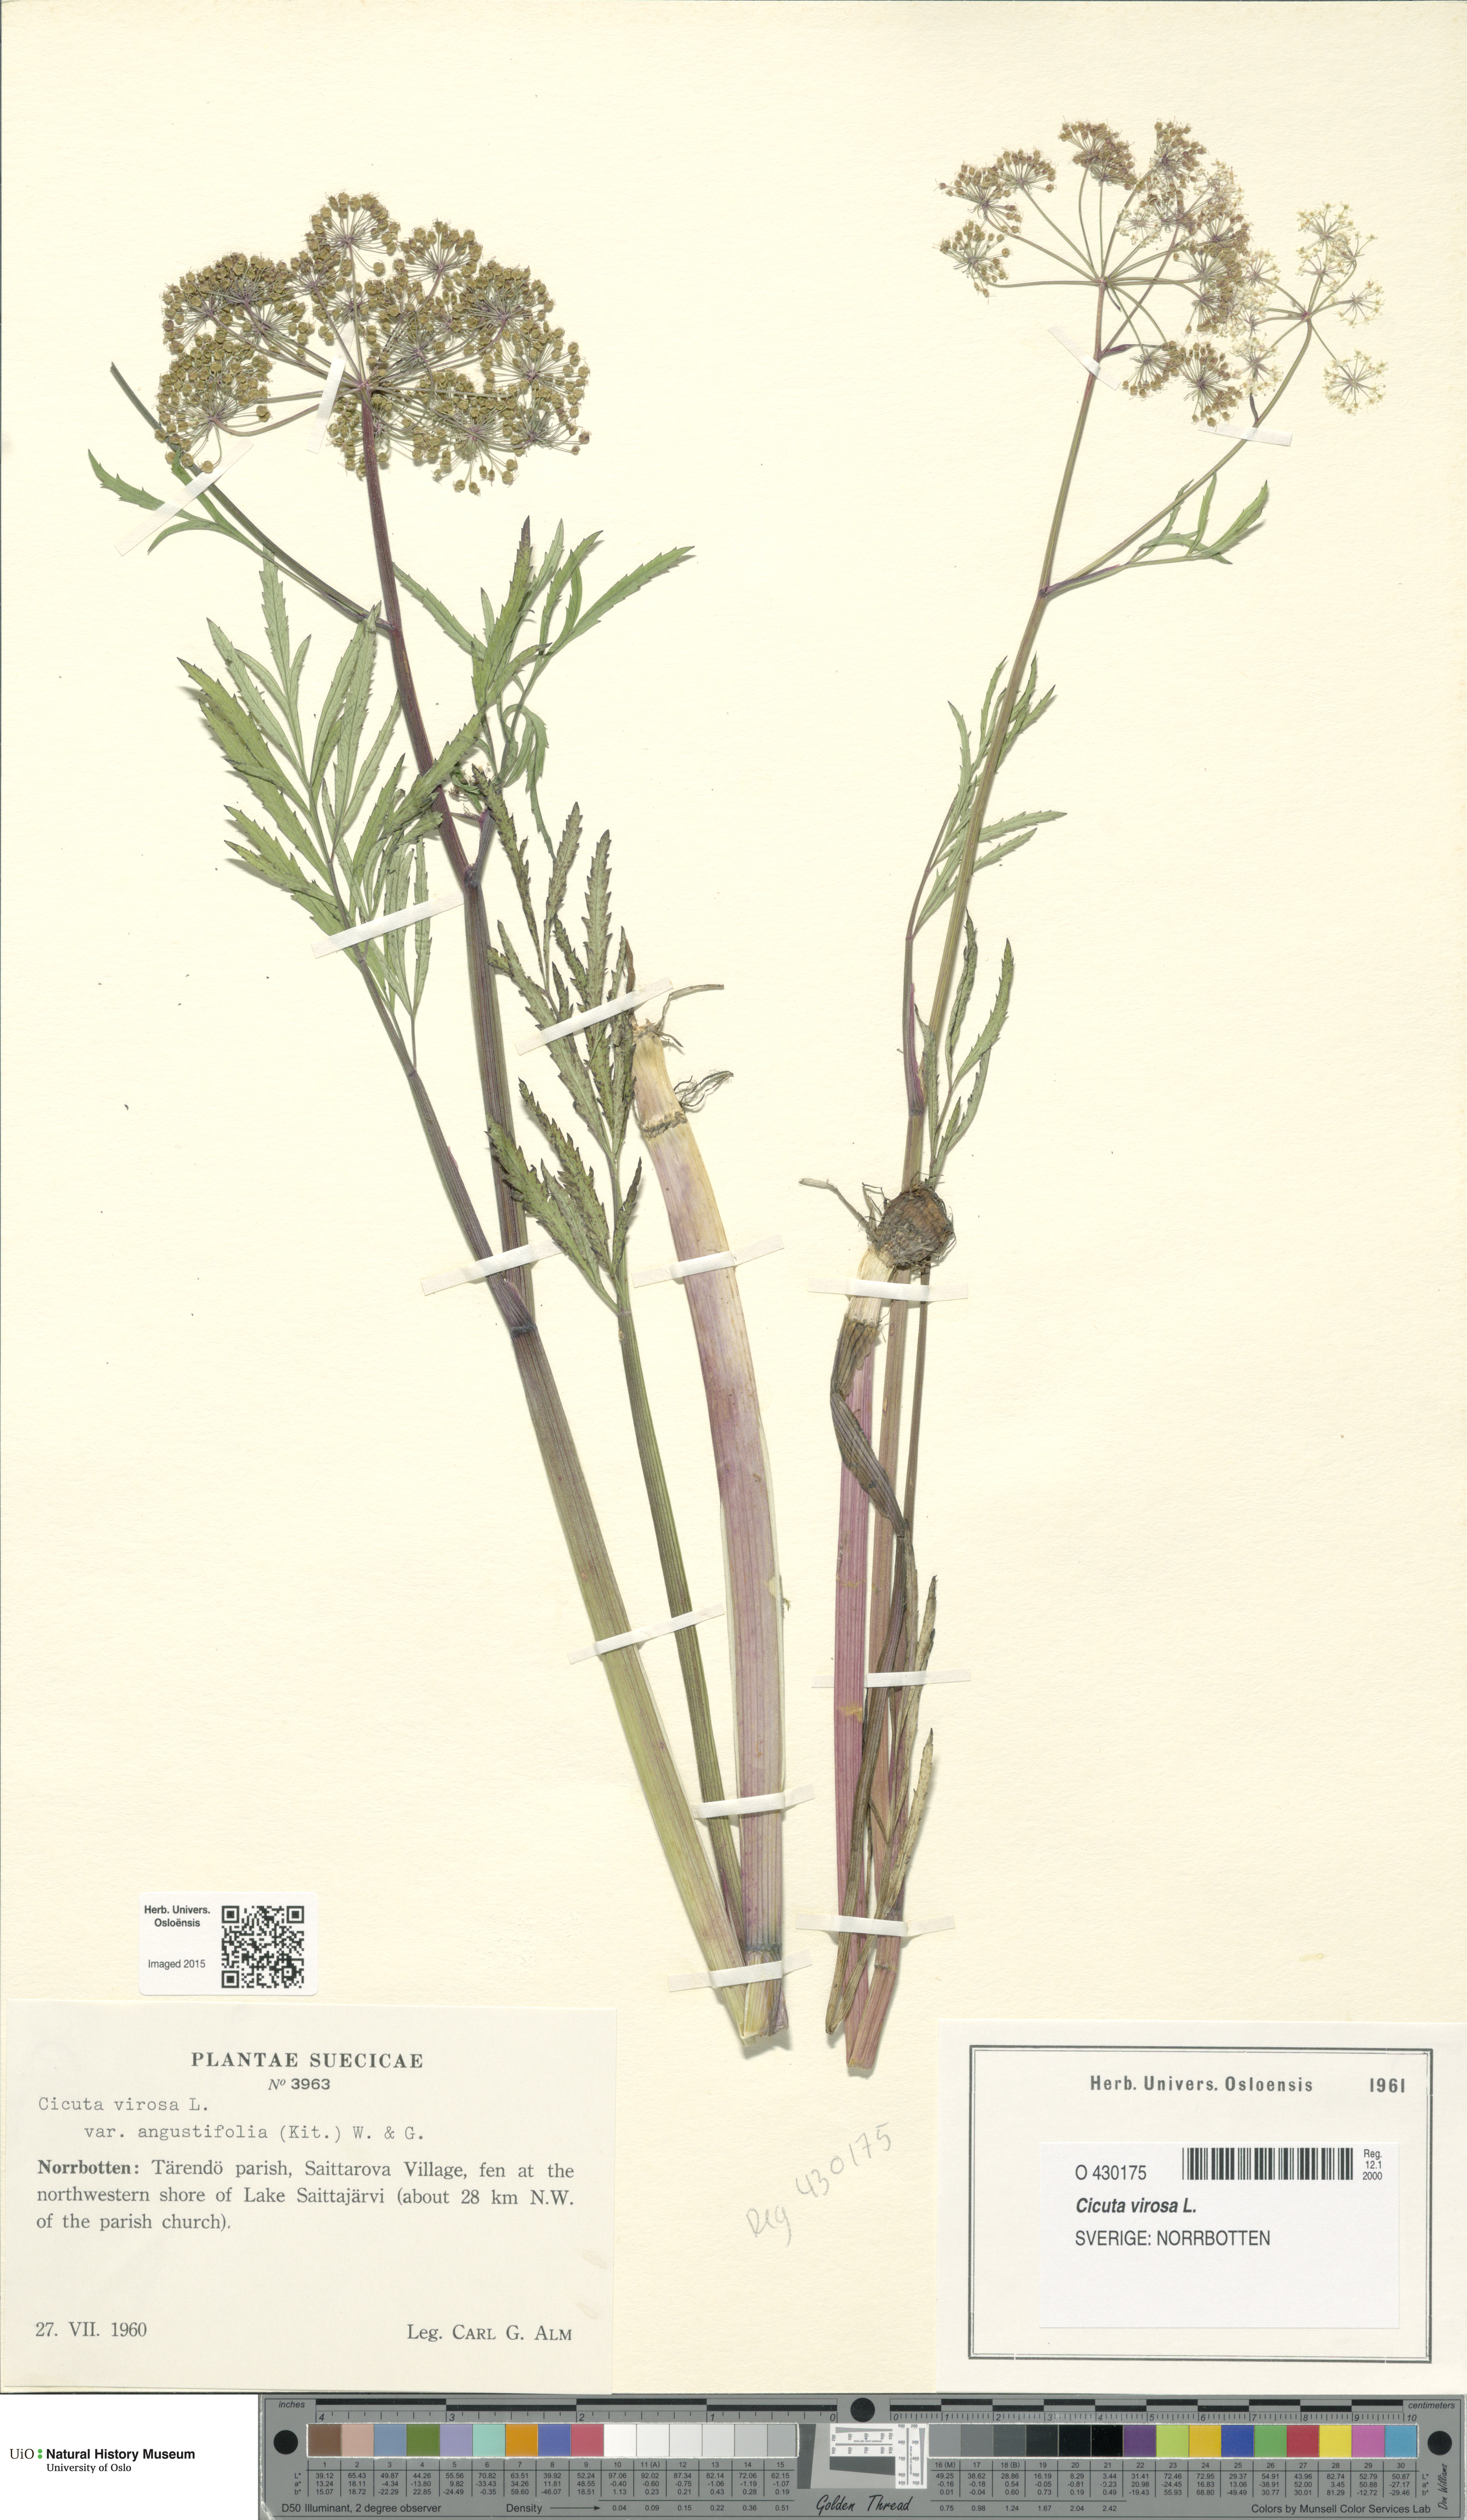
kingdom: Plantae
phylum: Tracheophyta
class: Magnoliopsida
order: Apiales
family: Apiaceae
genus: Cicuta
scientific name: Cicuta virosa
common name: Cowbane
